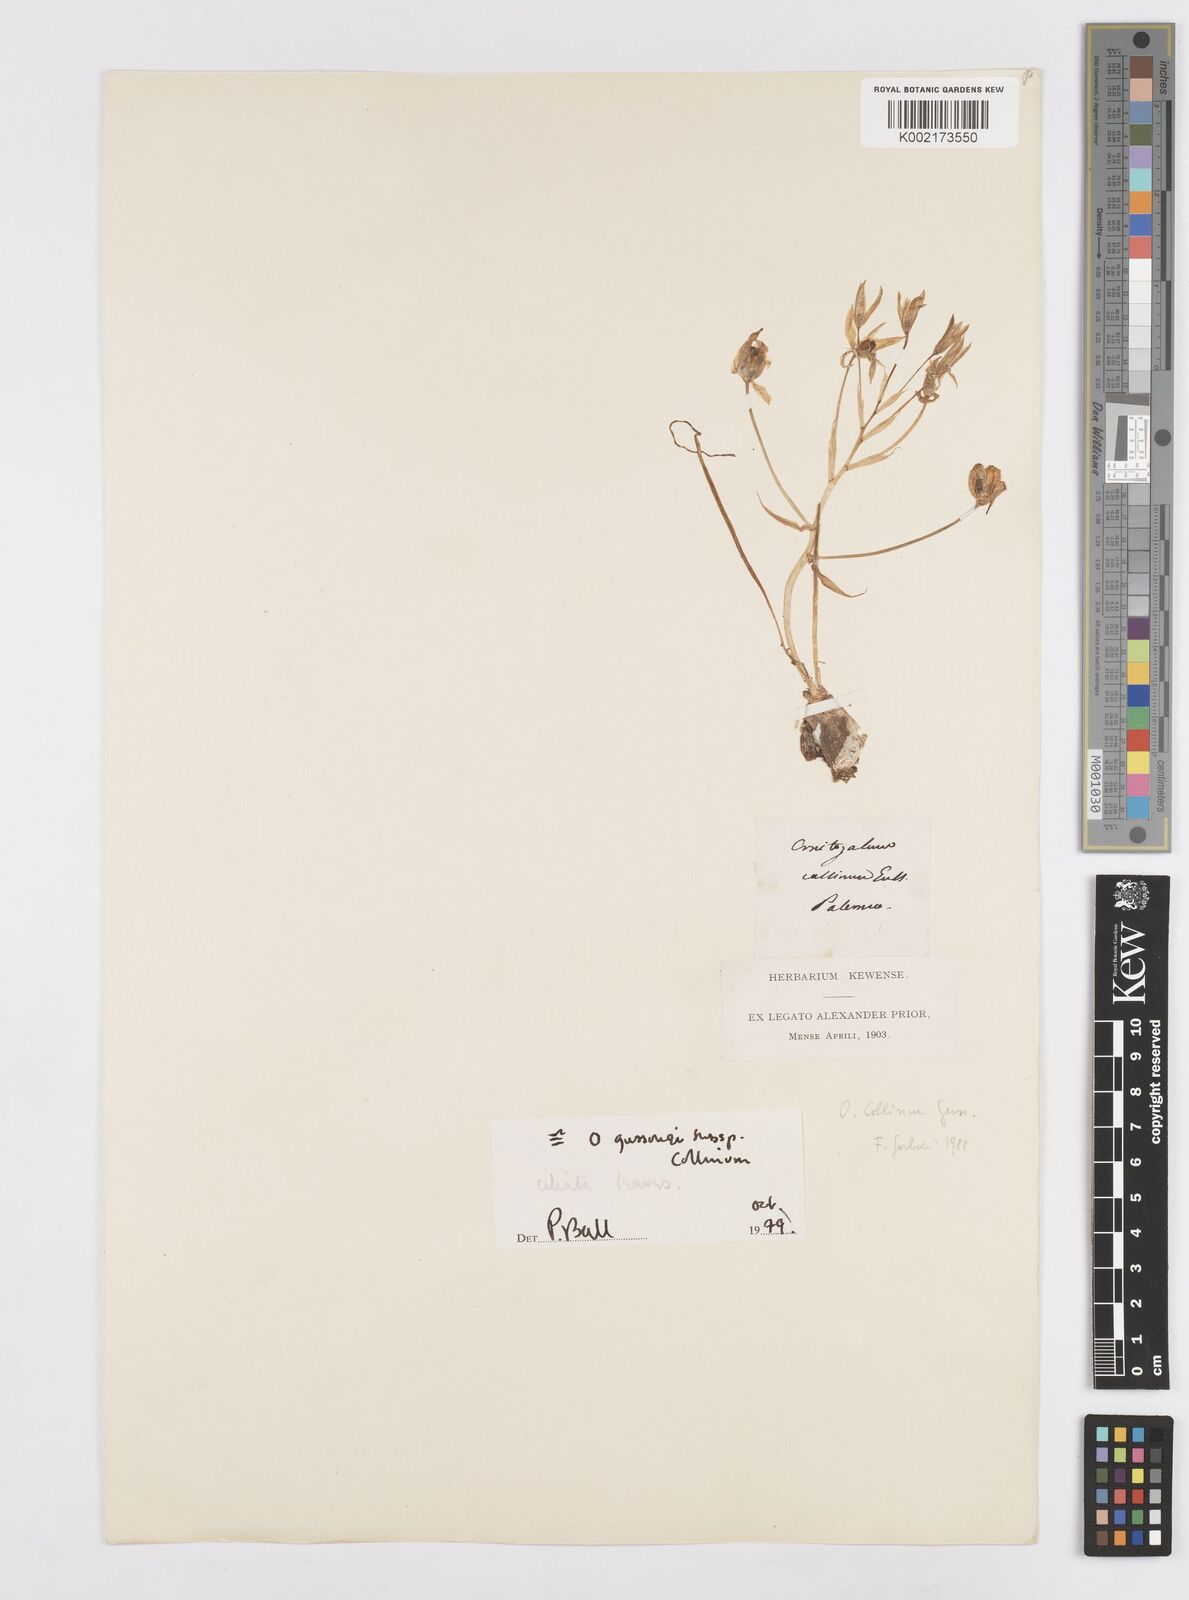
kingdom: Plantae
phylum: Tracheophyta
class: Liliopsida
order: Asparagales
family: Asparagaceae
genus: Ornithogalum
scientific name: Ornithogalum gussonei
